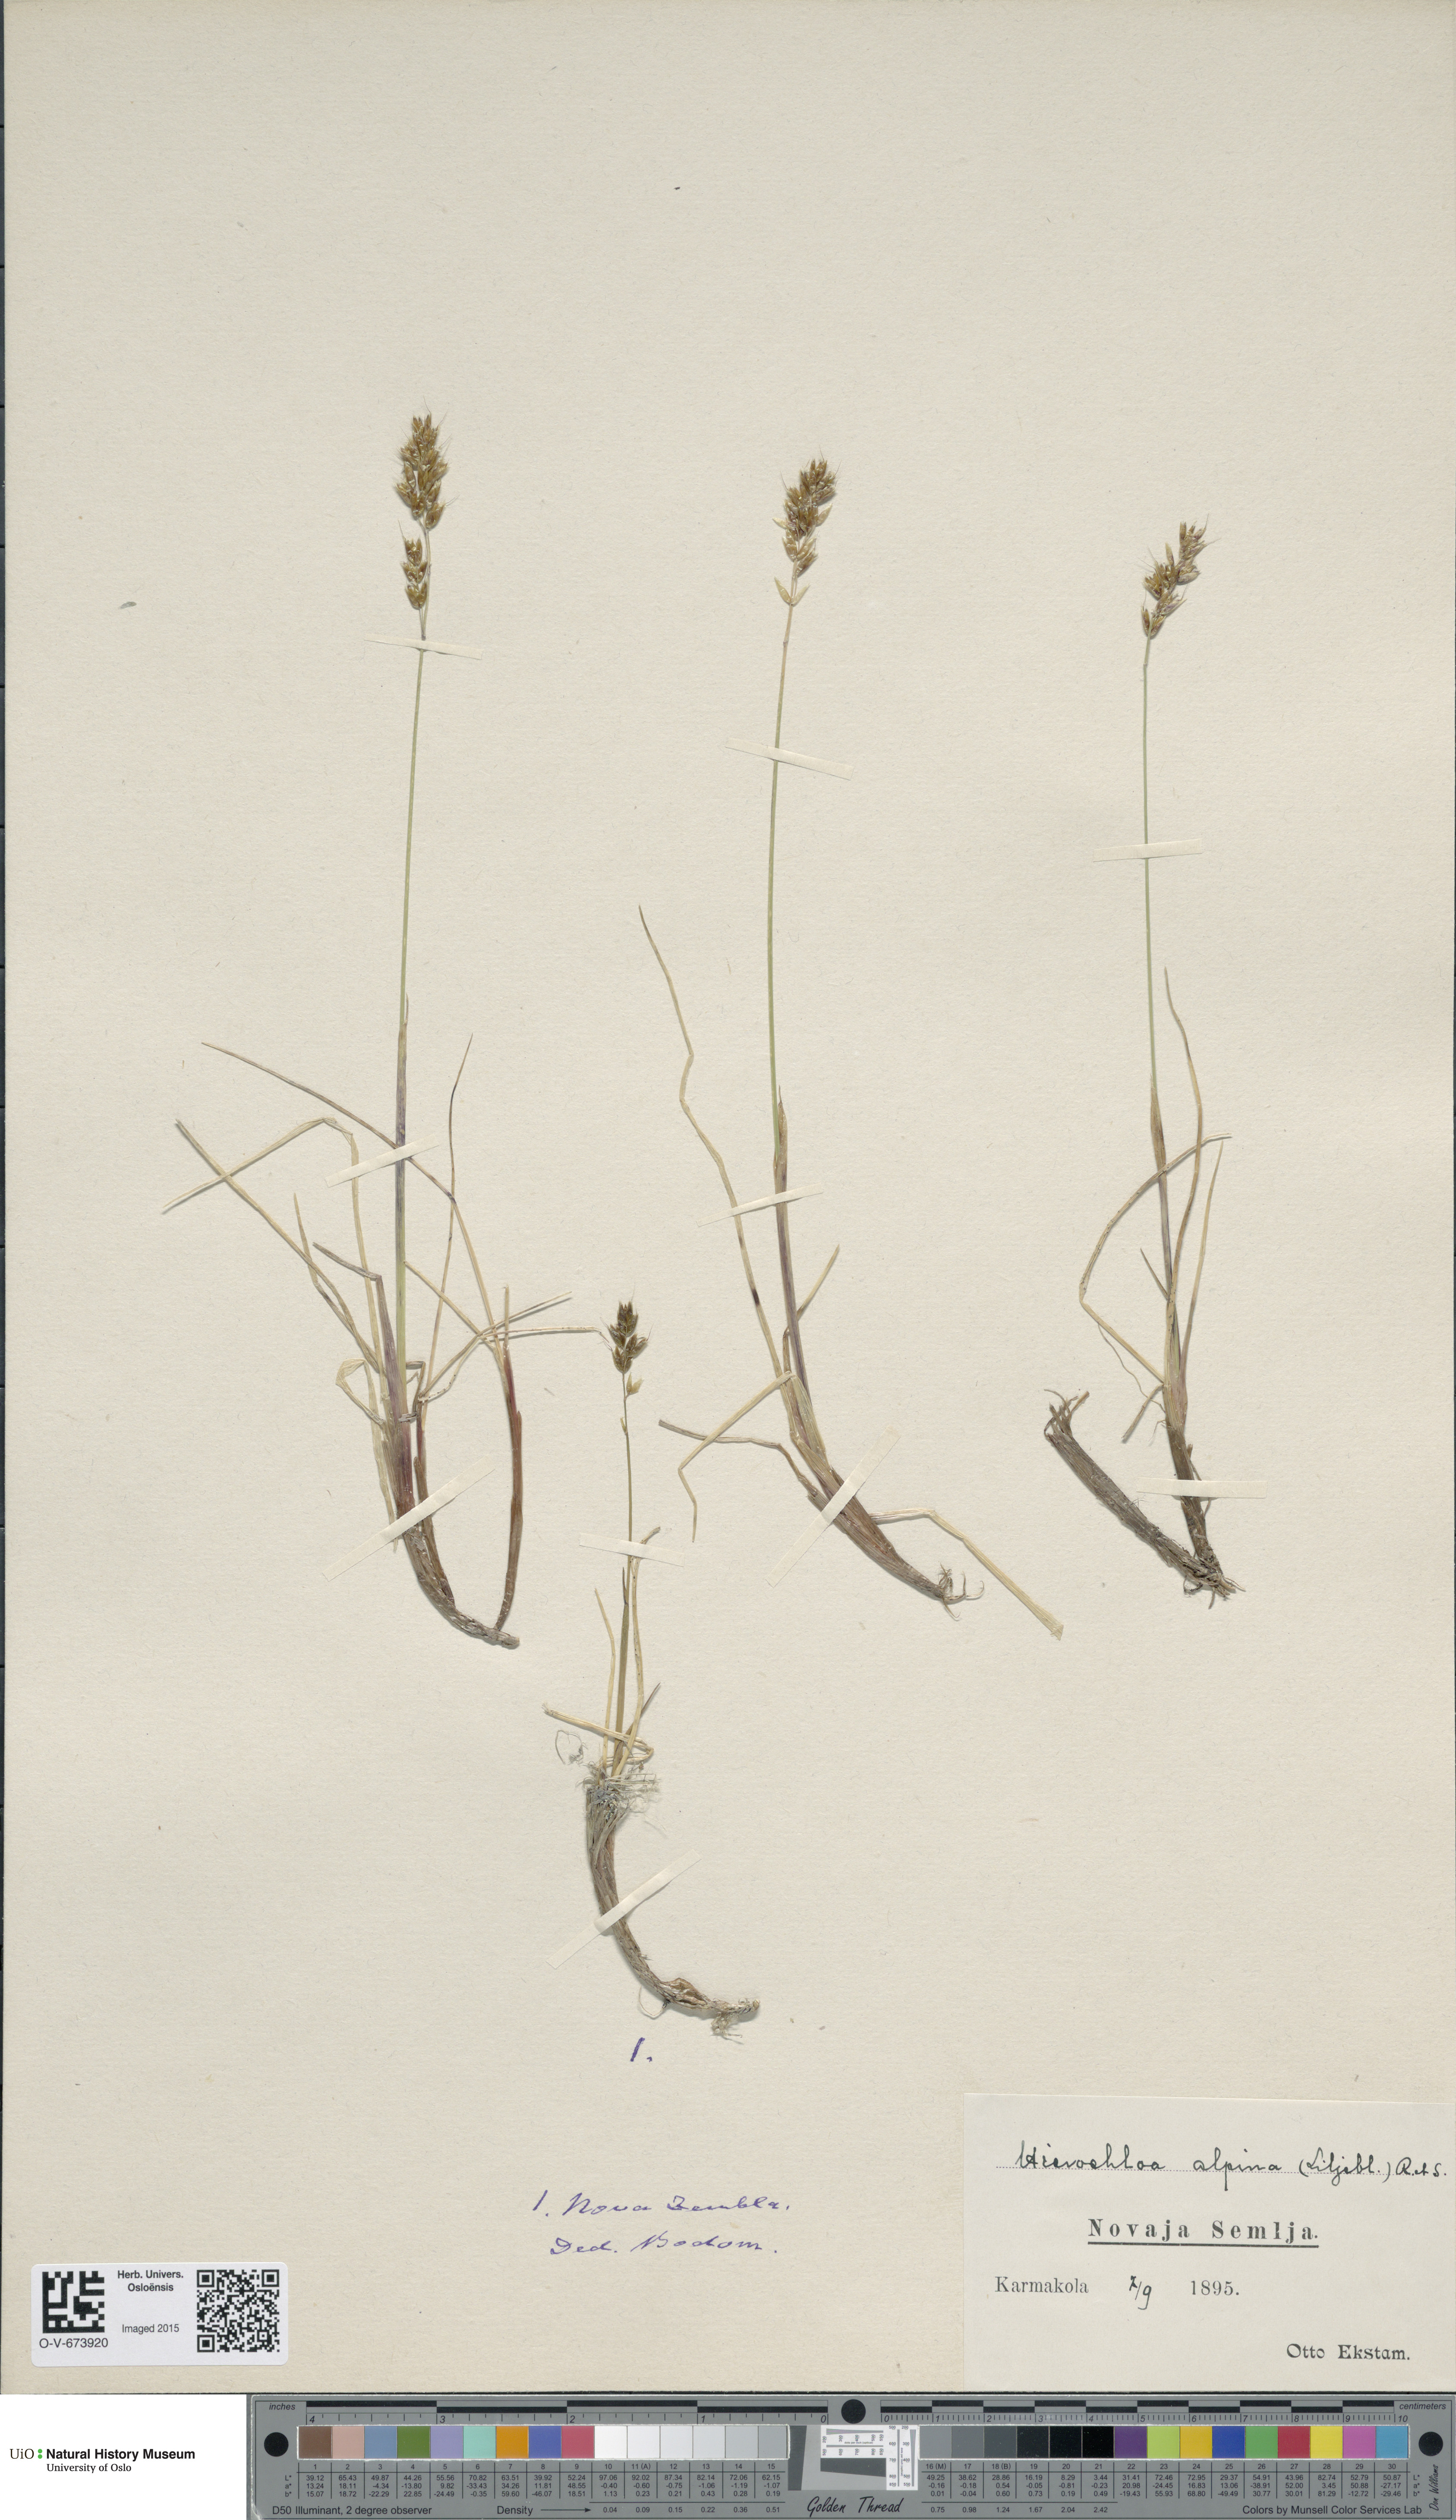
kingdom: Plantae
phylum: Tracheophyta
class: Liliopsida
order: Poales
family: Poaceae
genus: Anthoxanthum
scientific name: Anthoxanthum monticola
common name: Alpine sweetgrass
